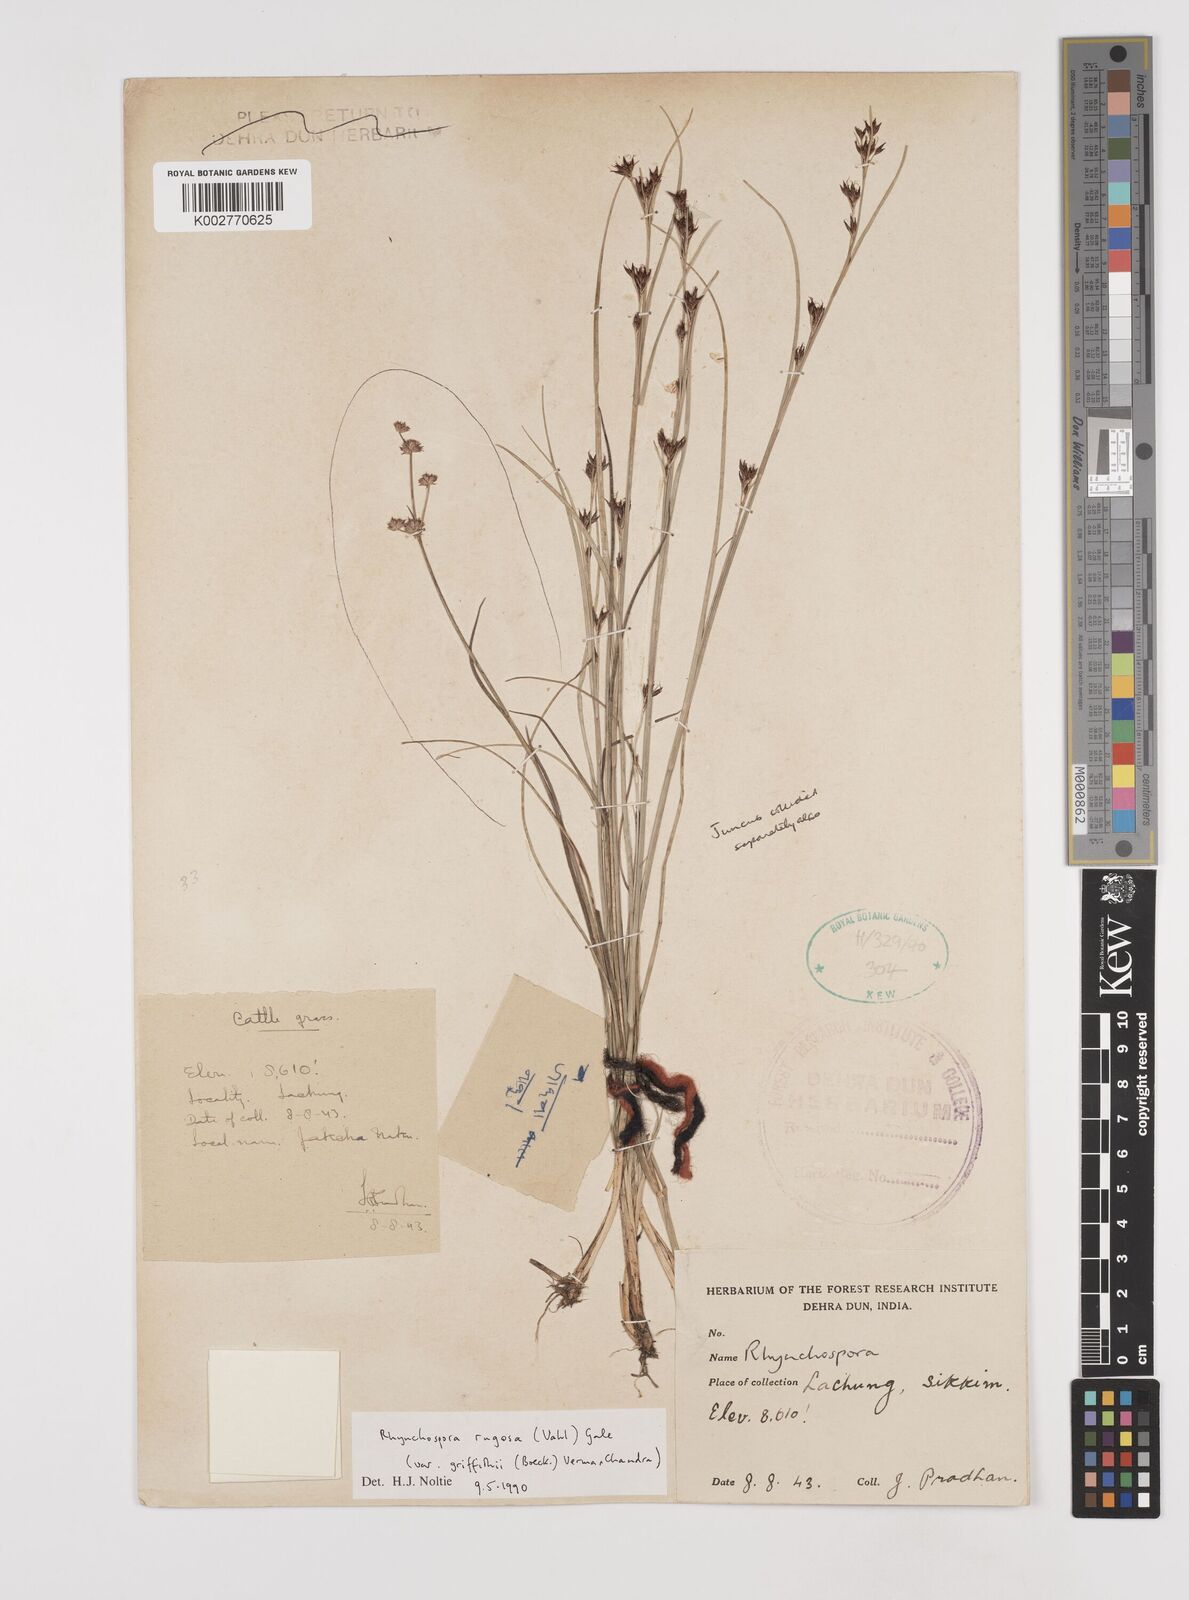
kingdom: Plantae
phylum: Tracheophyta
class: Liliopsida
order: Poales
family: Cyperaceae
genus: Rhynchospora
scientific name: Rhynchospora brownii
